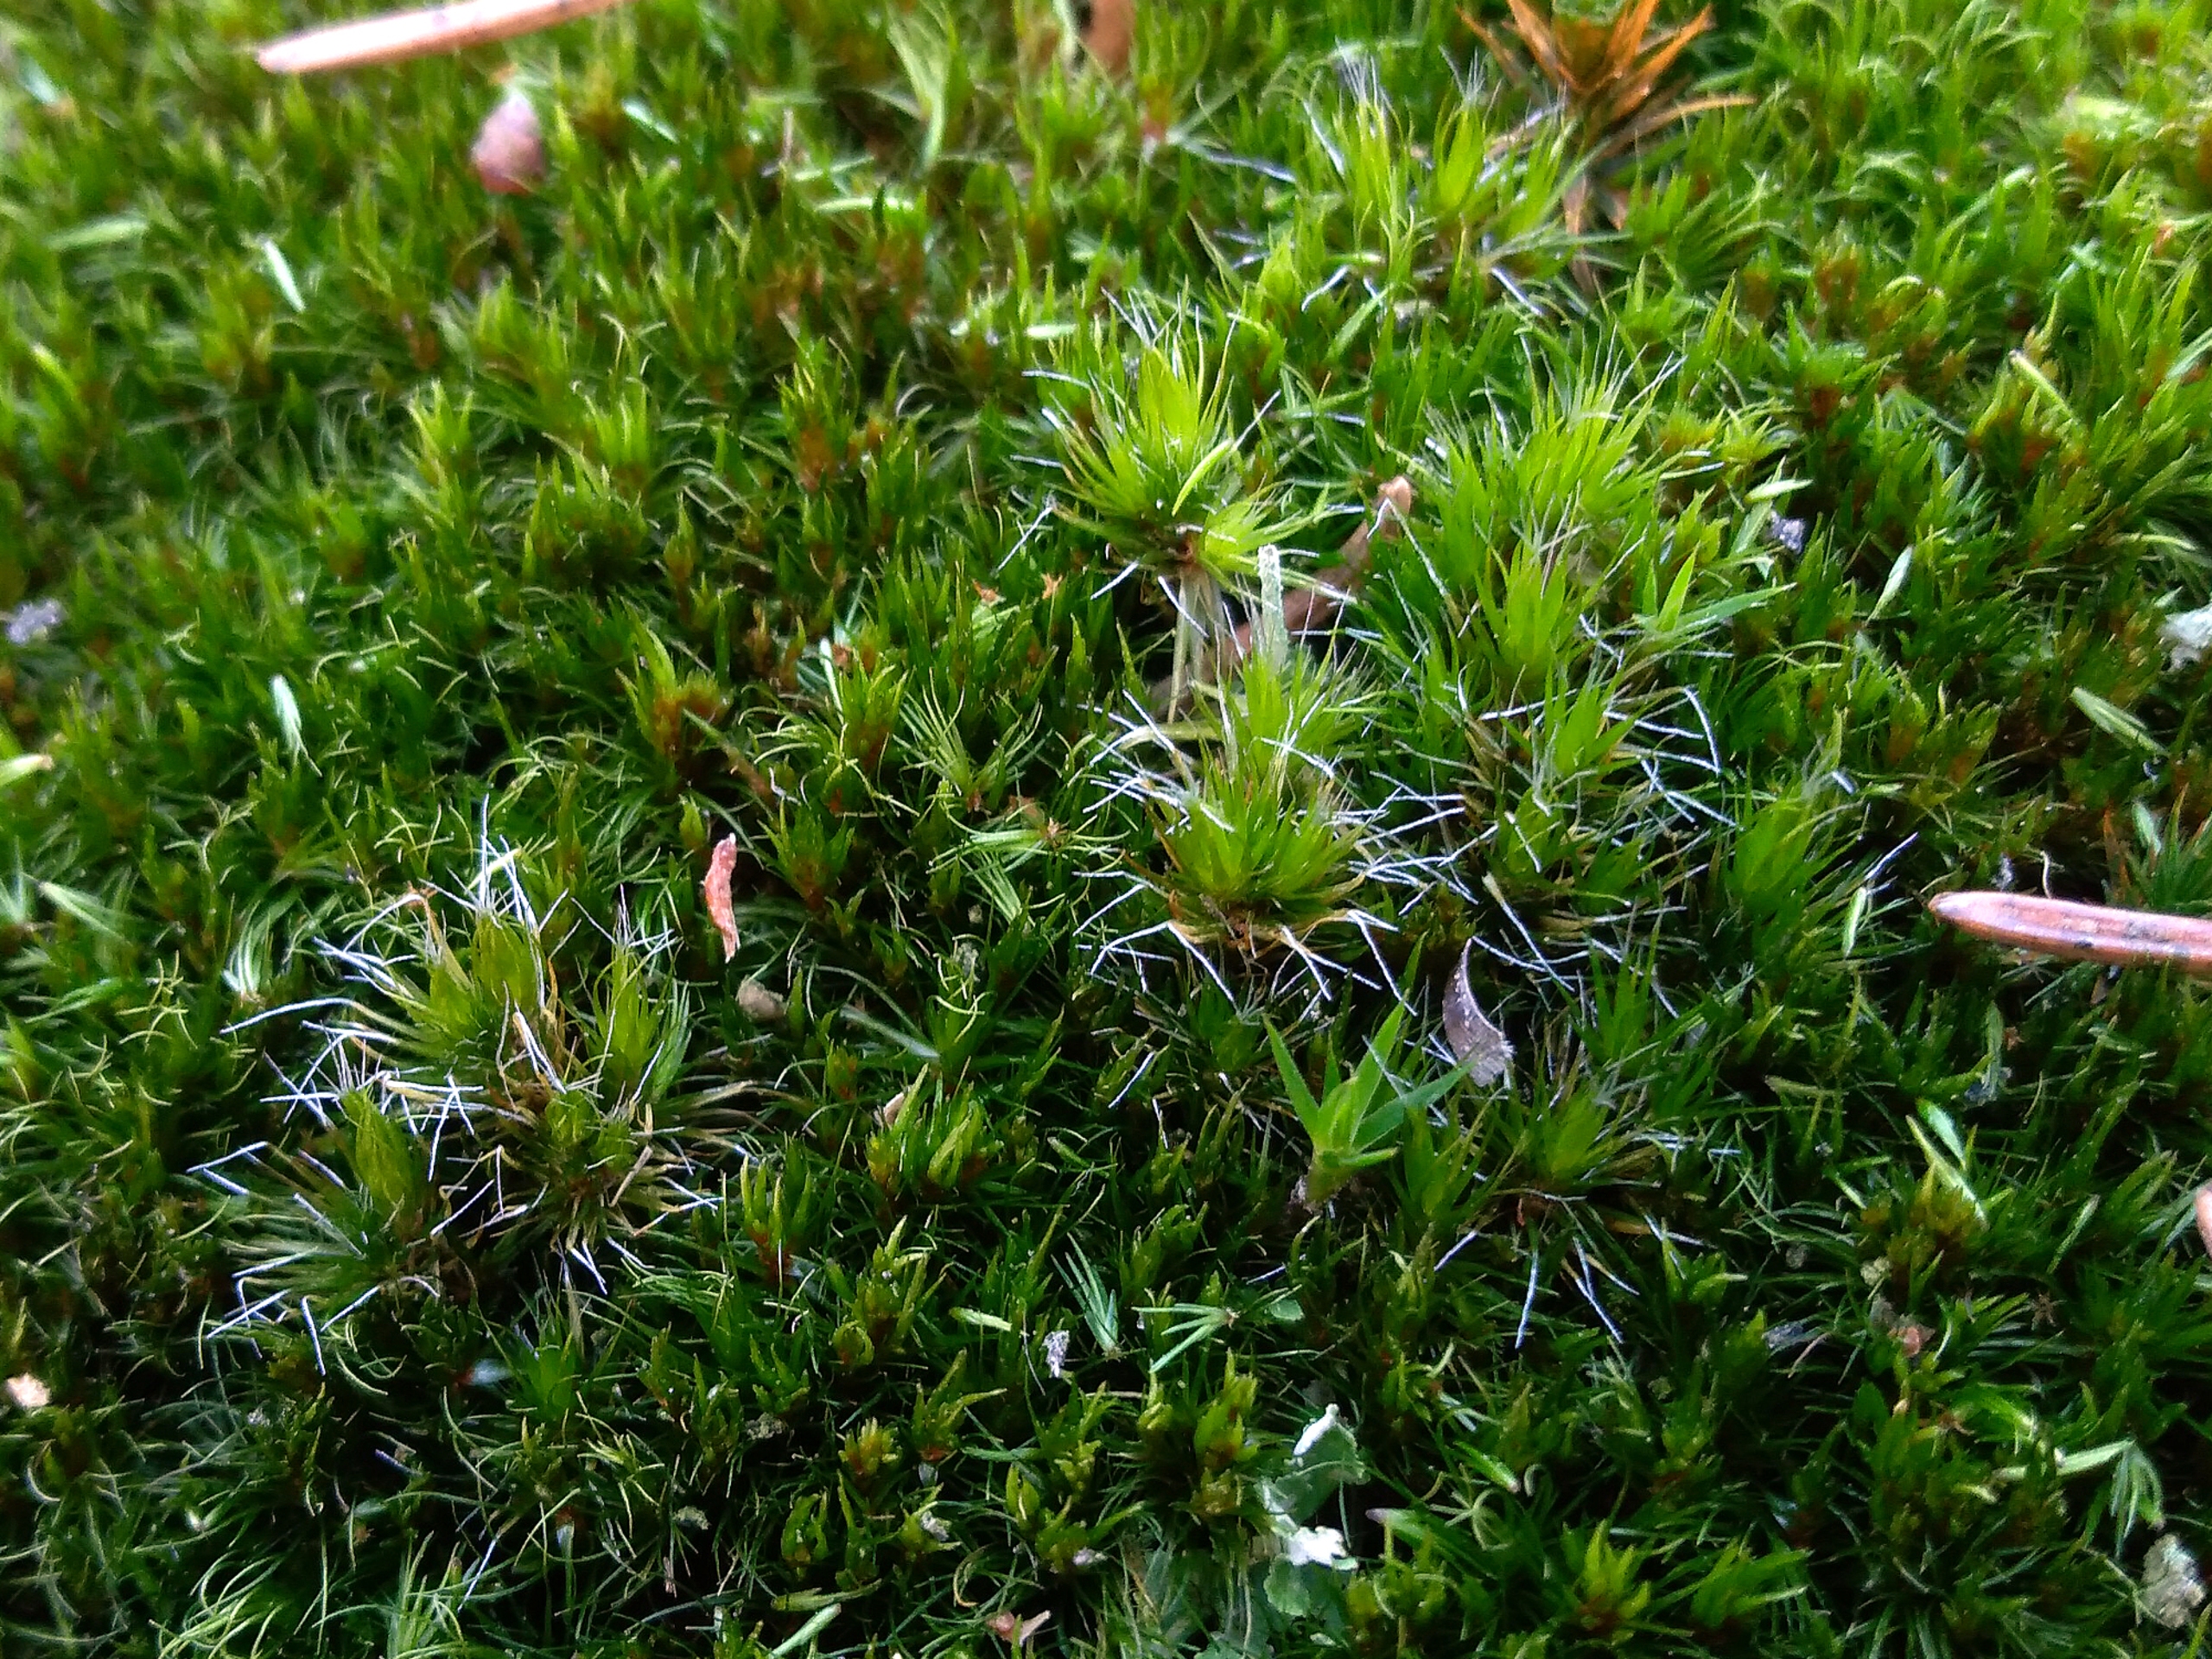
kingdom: Plantae
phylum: Bryophyta
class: Bryopsida
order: Dicranales
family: Leucobryaceae
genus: Campylopus
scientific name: Campylopus introflexus
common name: Stjerne-bredribbe
